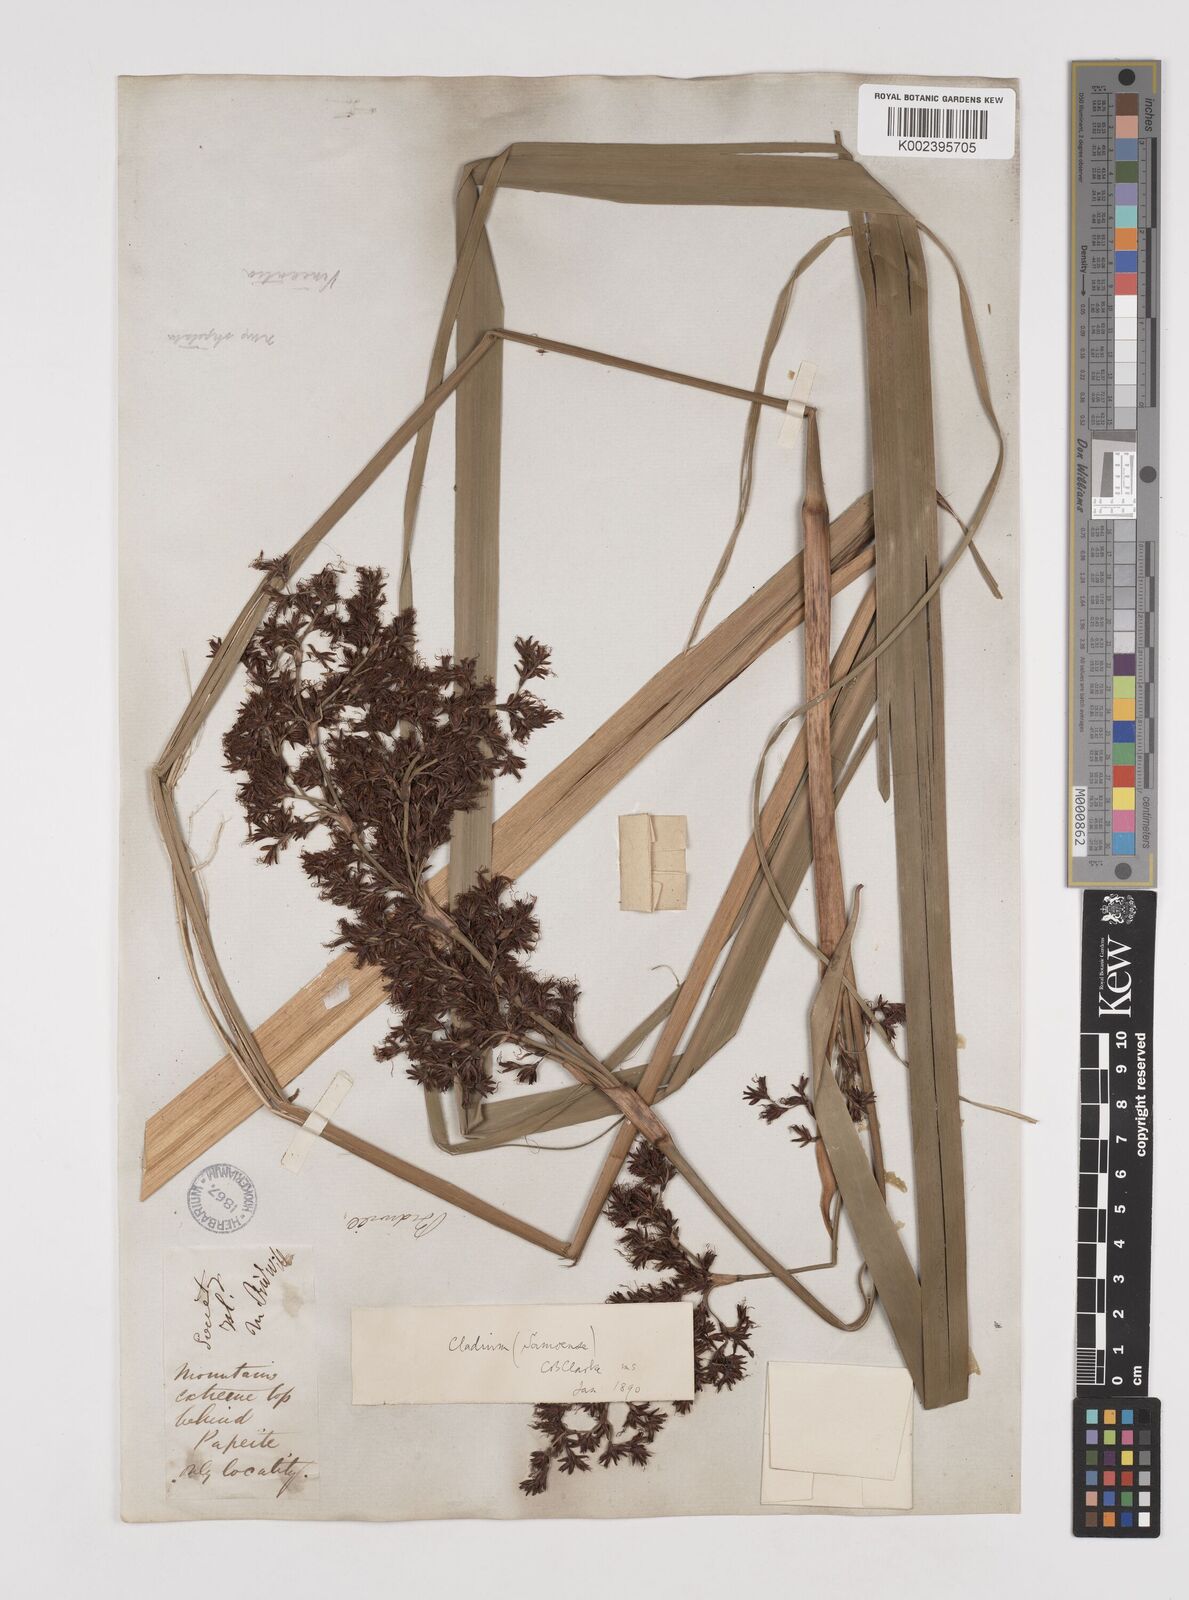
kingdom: Plantae
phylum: Tracheophyta
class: Liliopsida
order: Poales
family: Cyperaceae
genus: Machaerina
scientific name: Machaerina falcata
